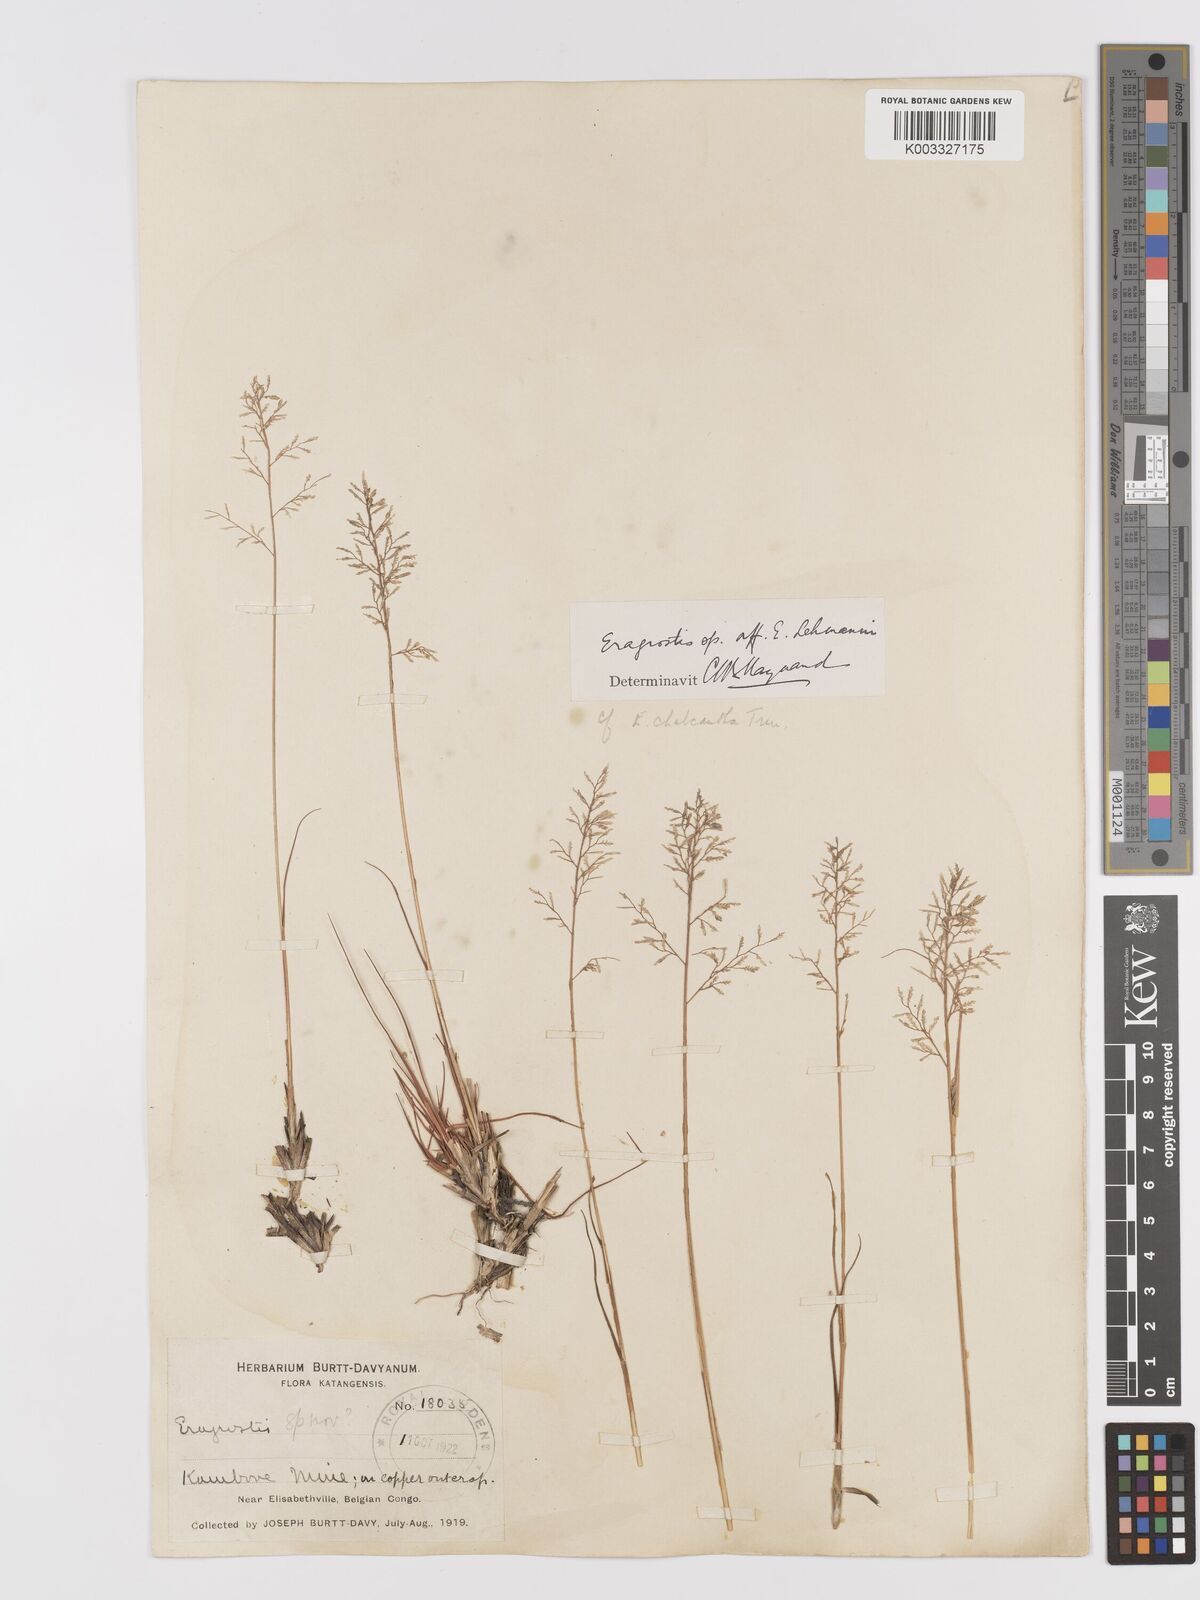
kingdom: Plantae
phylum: Tracheophyta
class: Liliopsida
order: Poales
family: Poaceae
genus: Eragrostis
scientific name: Eragrostis racemosa
